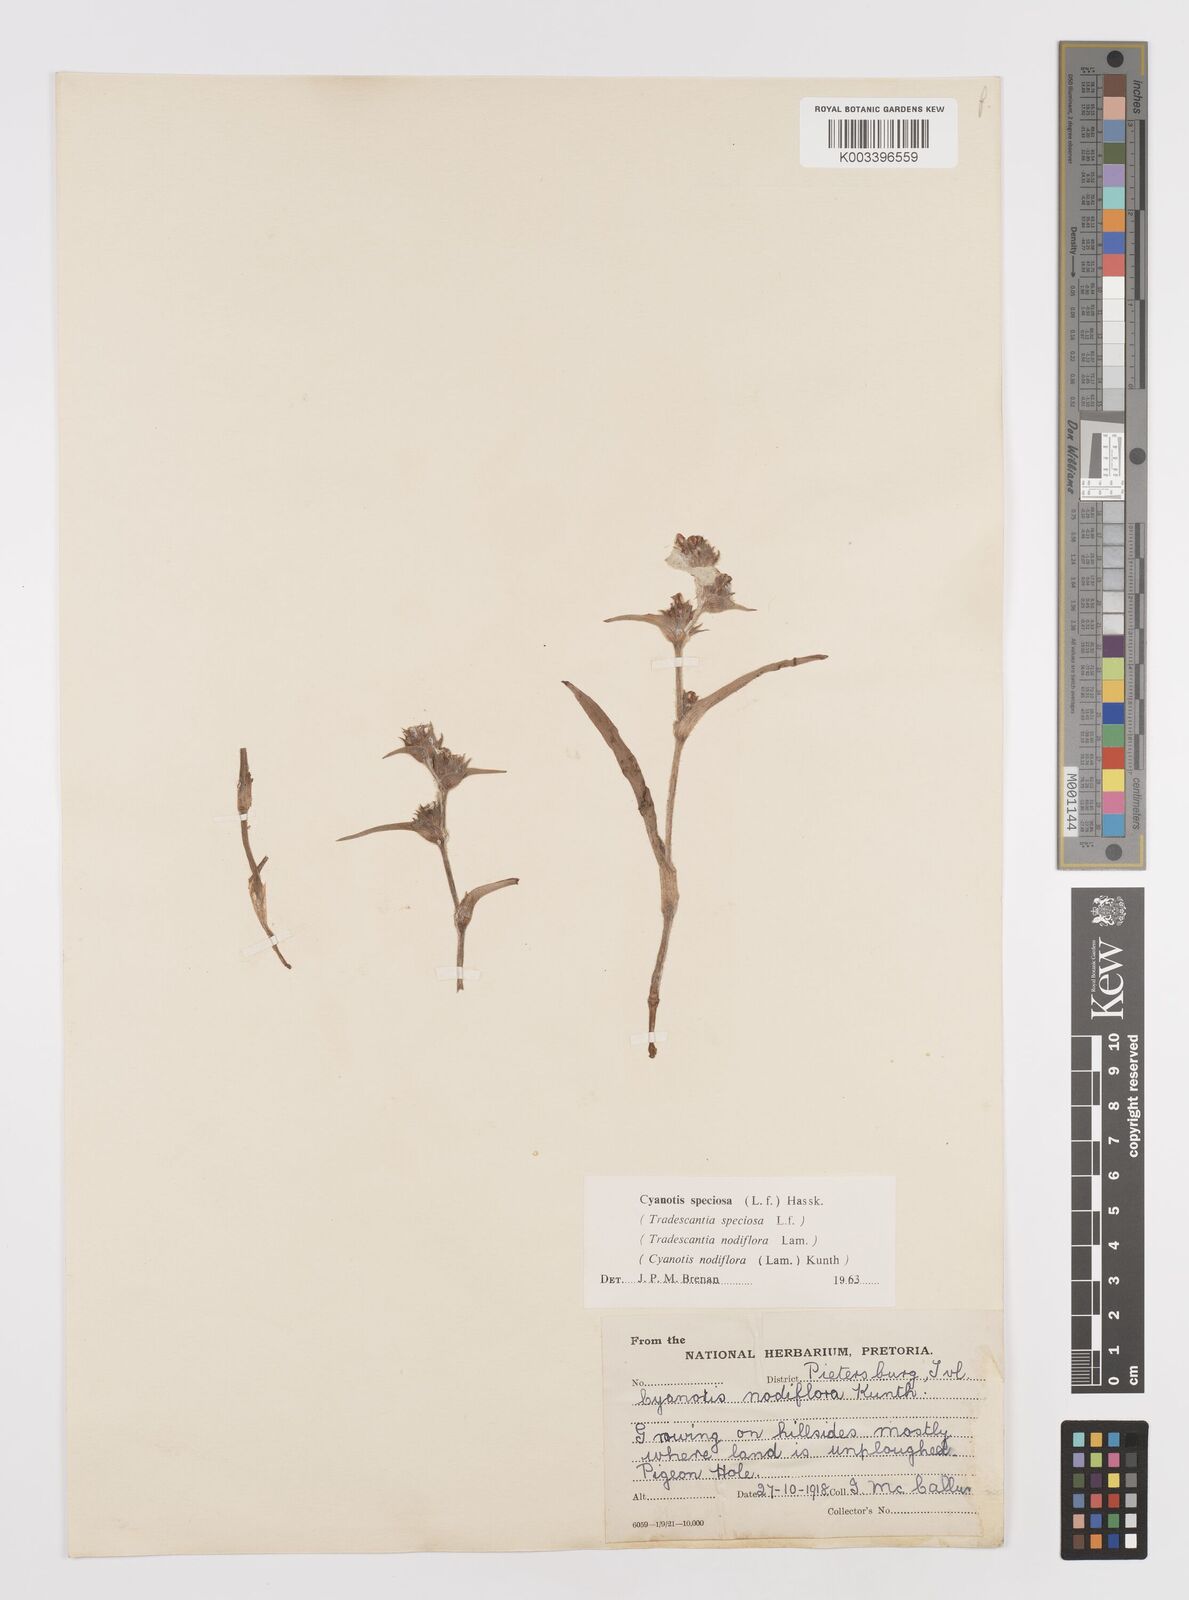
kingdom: Plantae
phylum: Tracheophyta
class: Liliopsida
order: Commelinales
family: Commelinaceae
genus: Cyanotis
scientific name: Cyanotis speciosa
